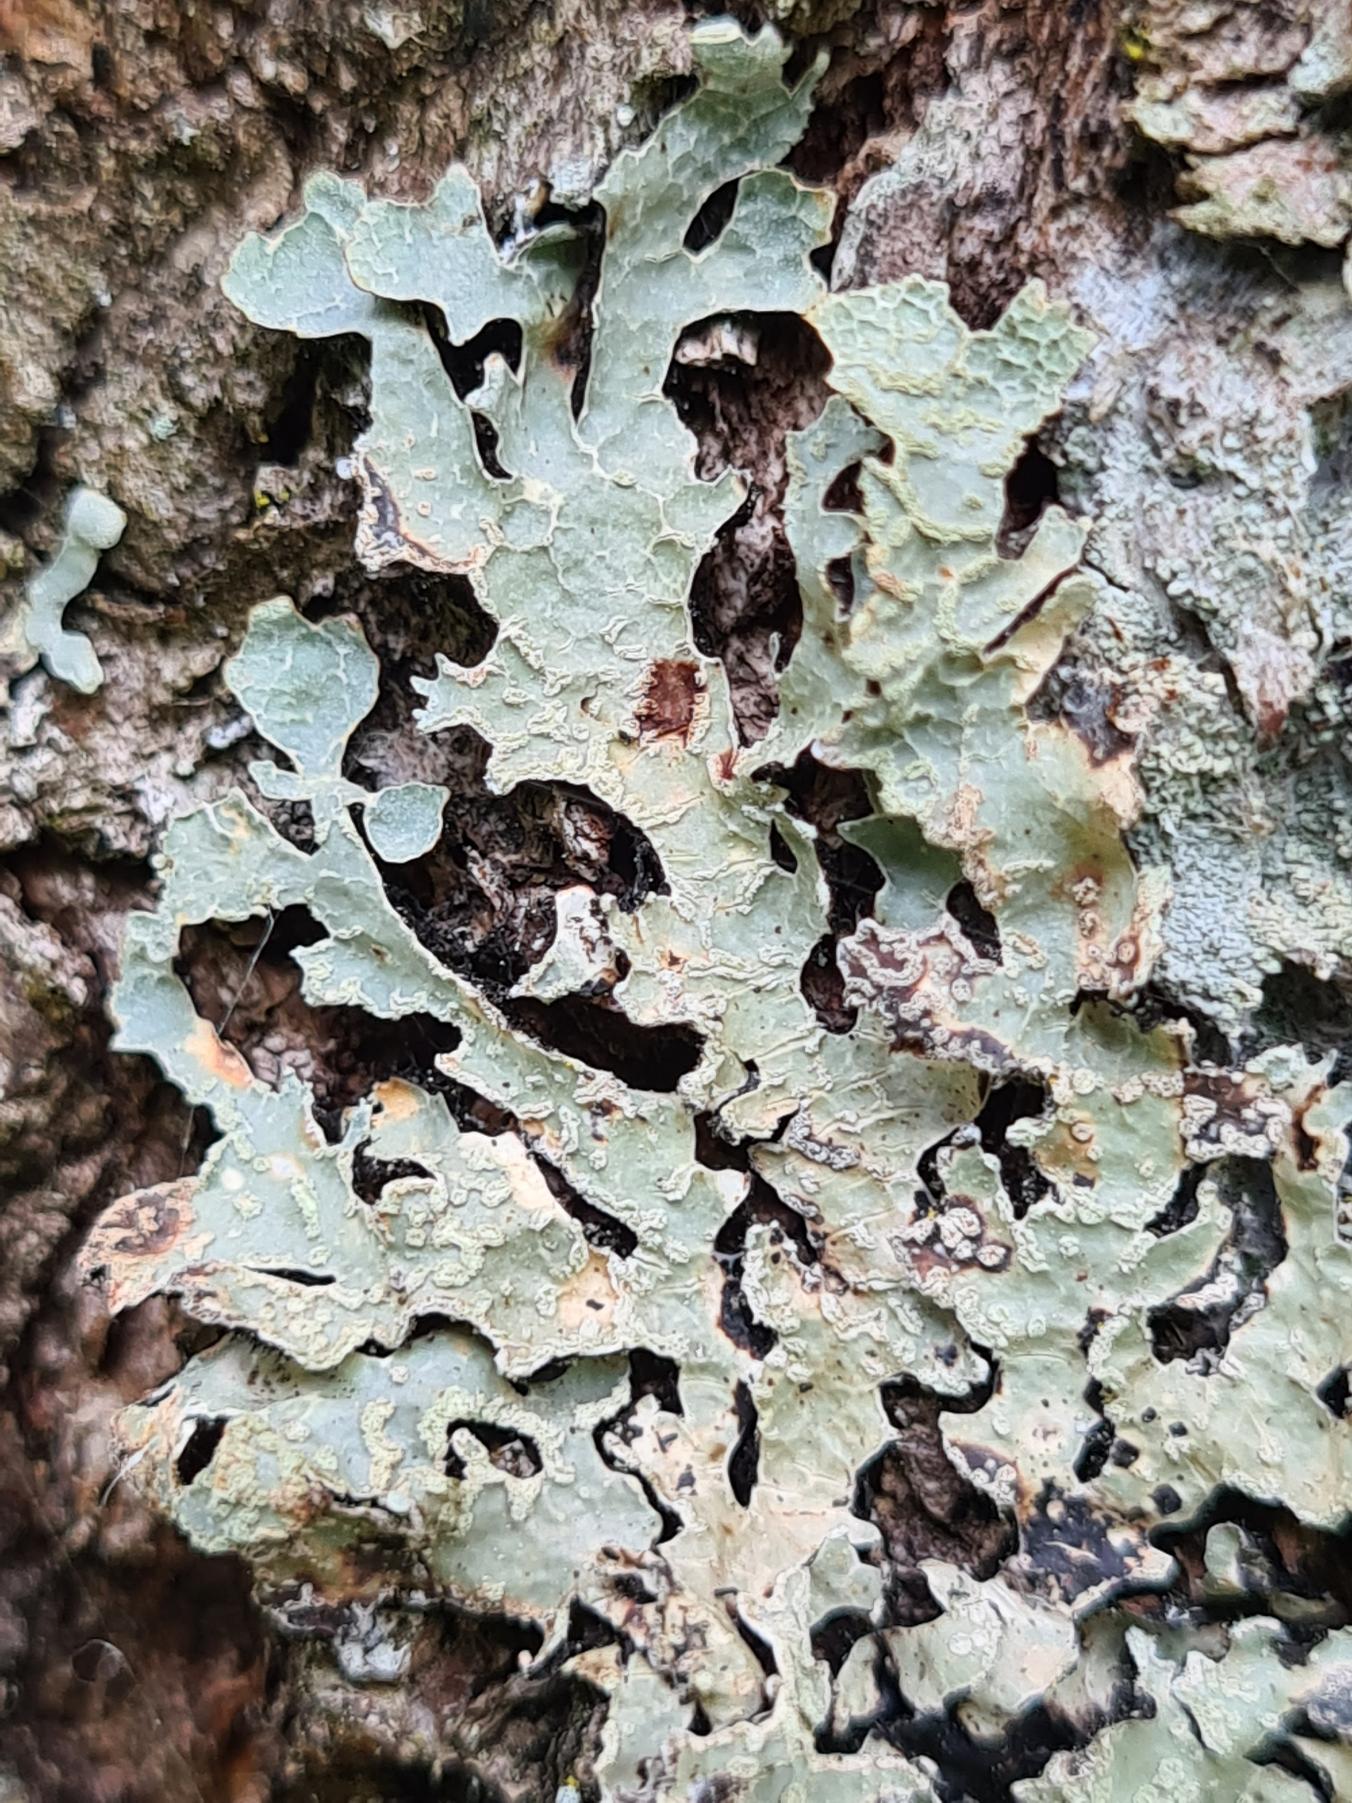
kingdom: Fungi
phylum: Ascomycota
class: Lecanoromycetes
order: Lecanorales
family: Parmeliaceae
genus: Parmelia
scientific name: Parmelia sulcata
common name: Rynket skållav
